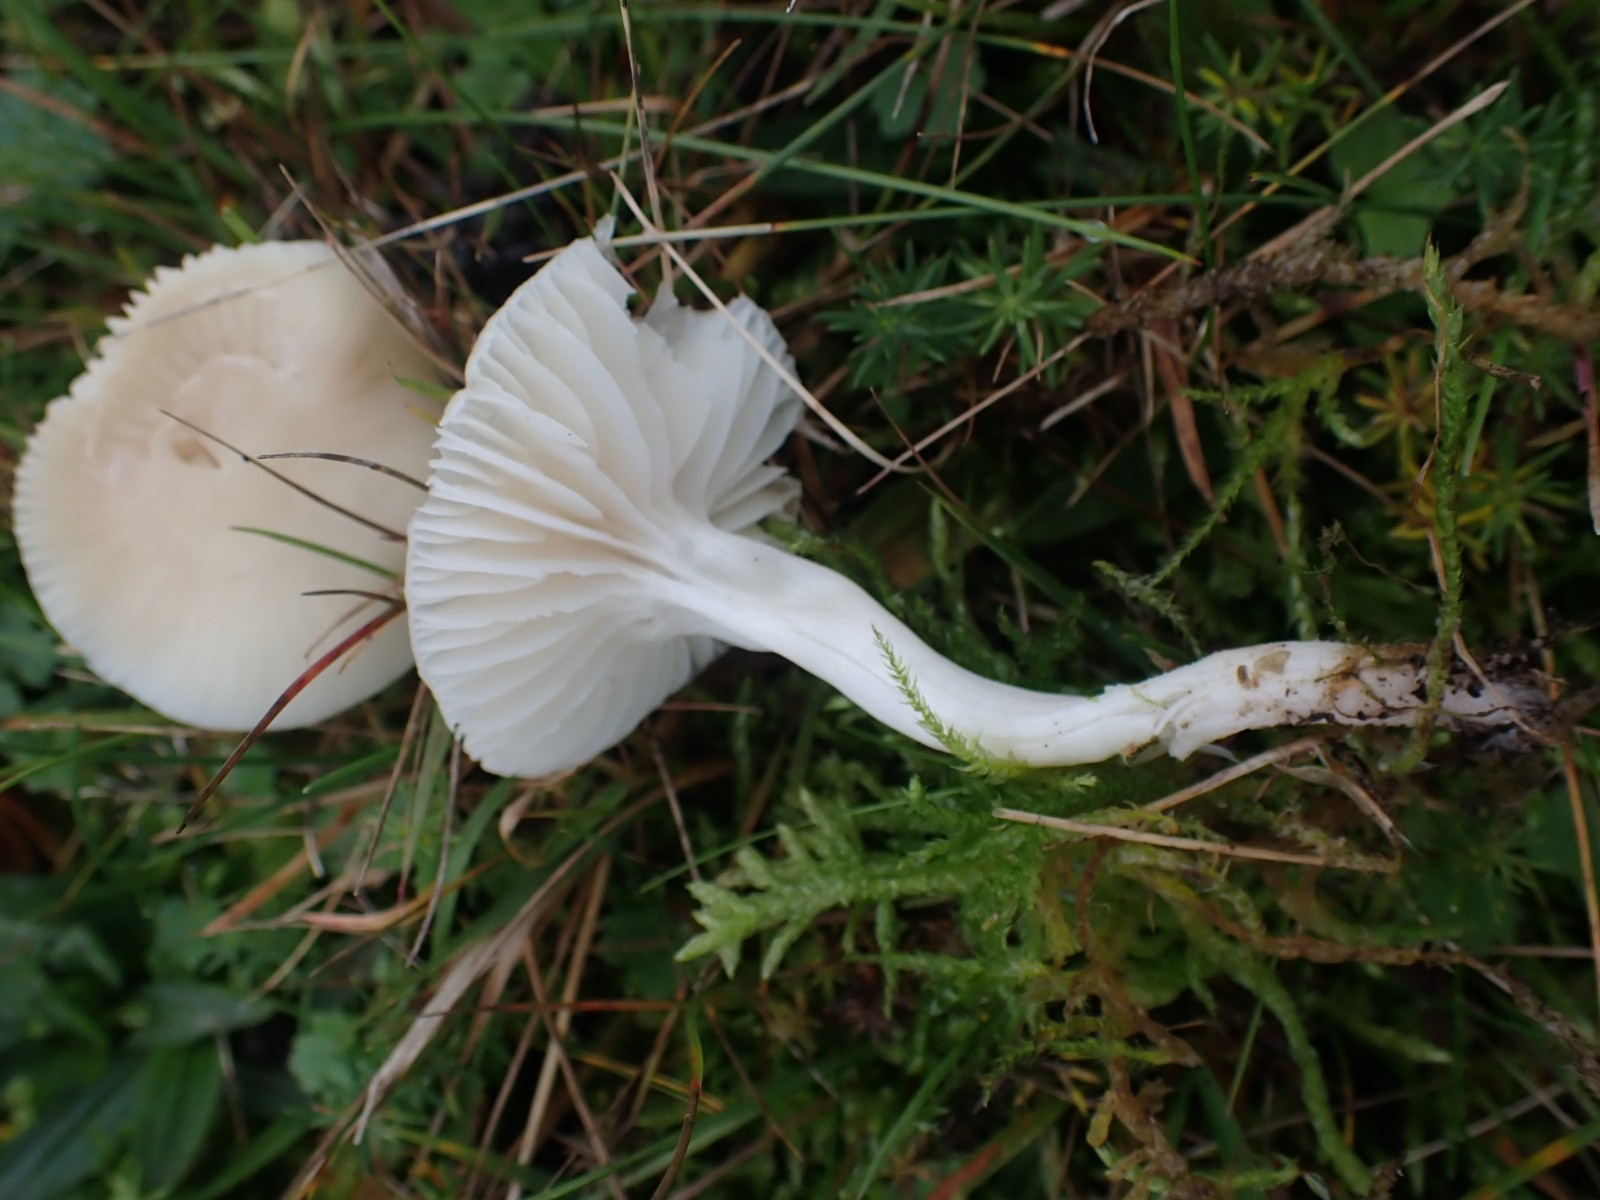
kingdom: Fungi
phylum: Basidiomycota
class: Agaricomycetes
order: Agaricales
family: Hygrophoraceae
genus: Cuphophyllus
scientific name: Cuphophyllus virgineus
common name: snehvid vokshat
